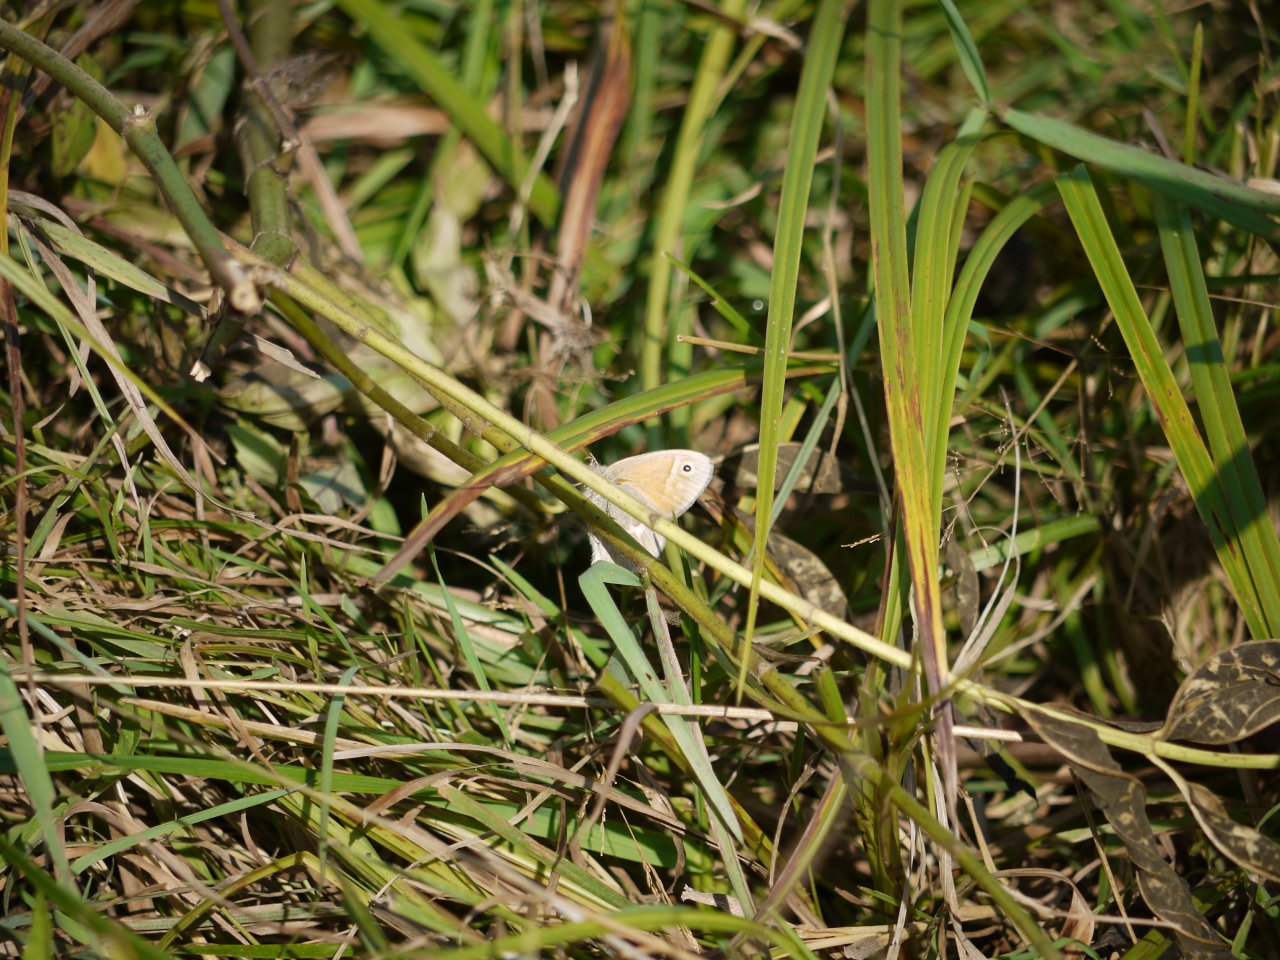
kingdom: Animalia
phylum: Arthropoda
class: Insecta
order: Lepidoptera
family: Nymphalidae
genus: Coenonympha
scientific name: Coenonympha tullia
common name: Large Heath
